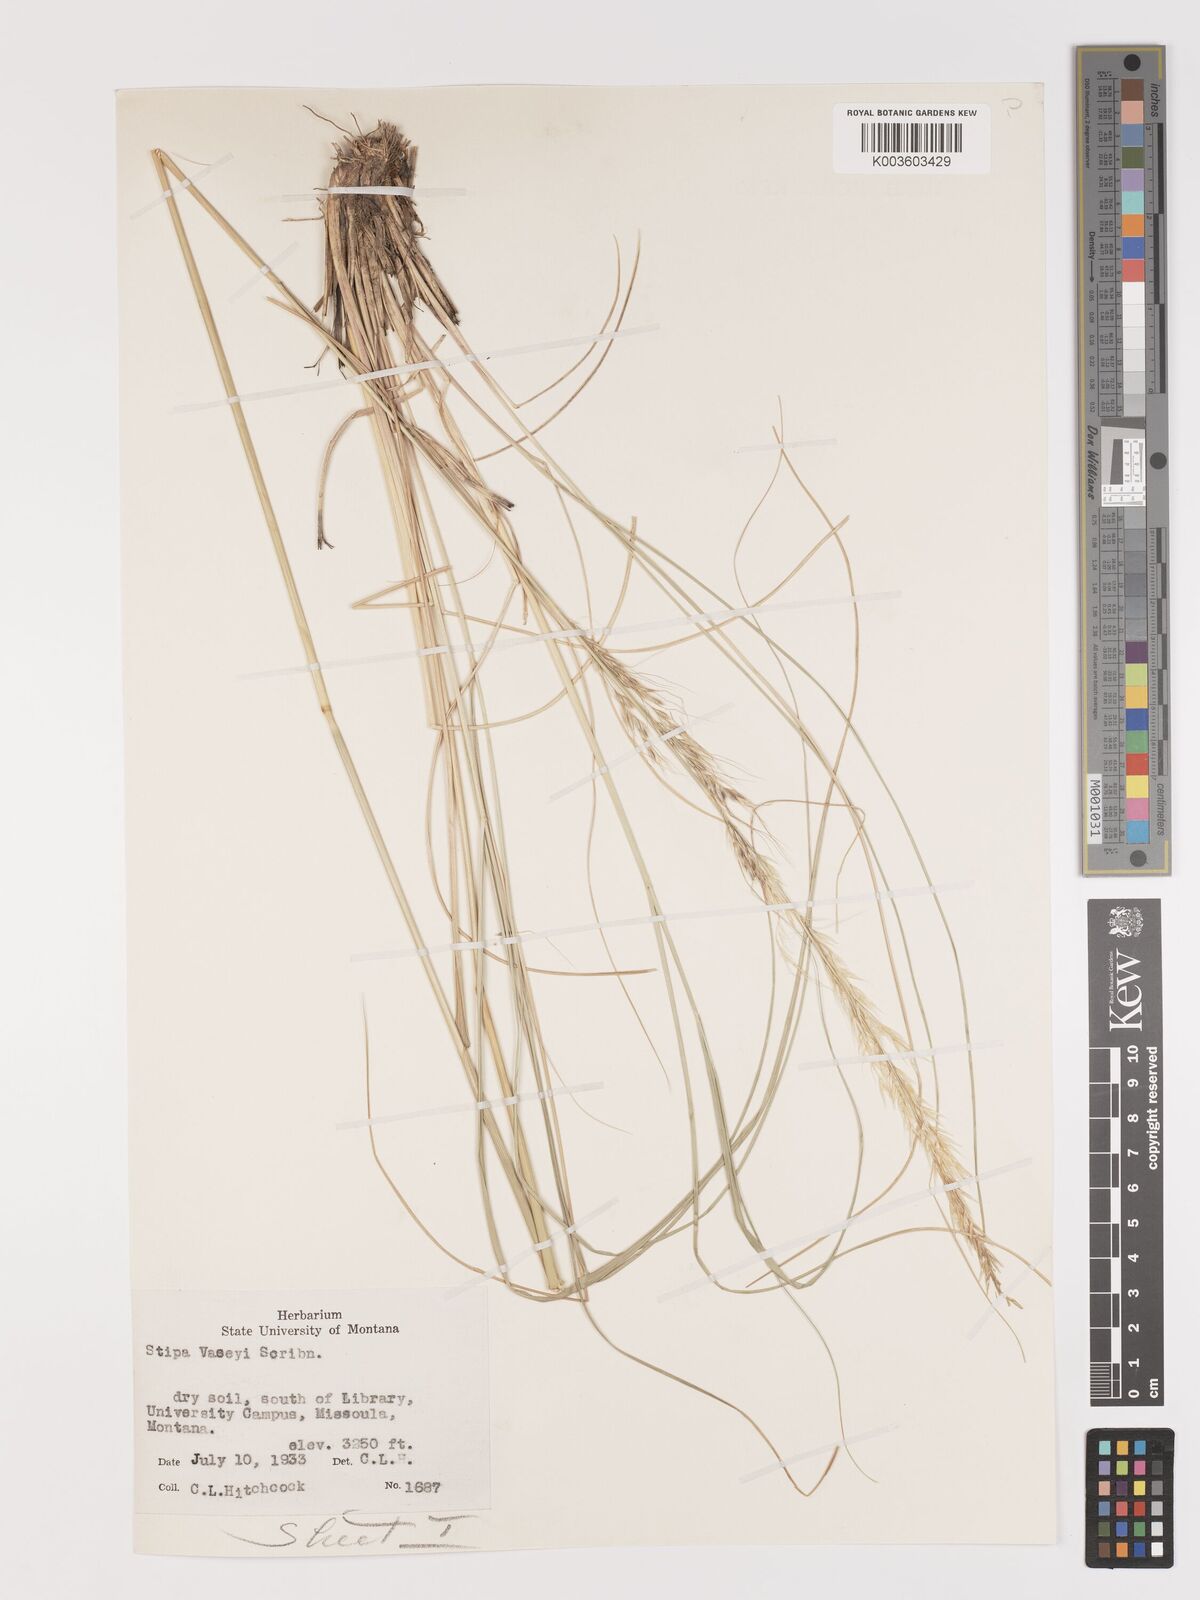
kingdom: Plantae
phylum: Tracheophyta
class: Liliopsida
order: Poales
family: Poaceae
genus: Eriocoma
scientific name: Eriocoma robusta
